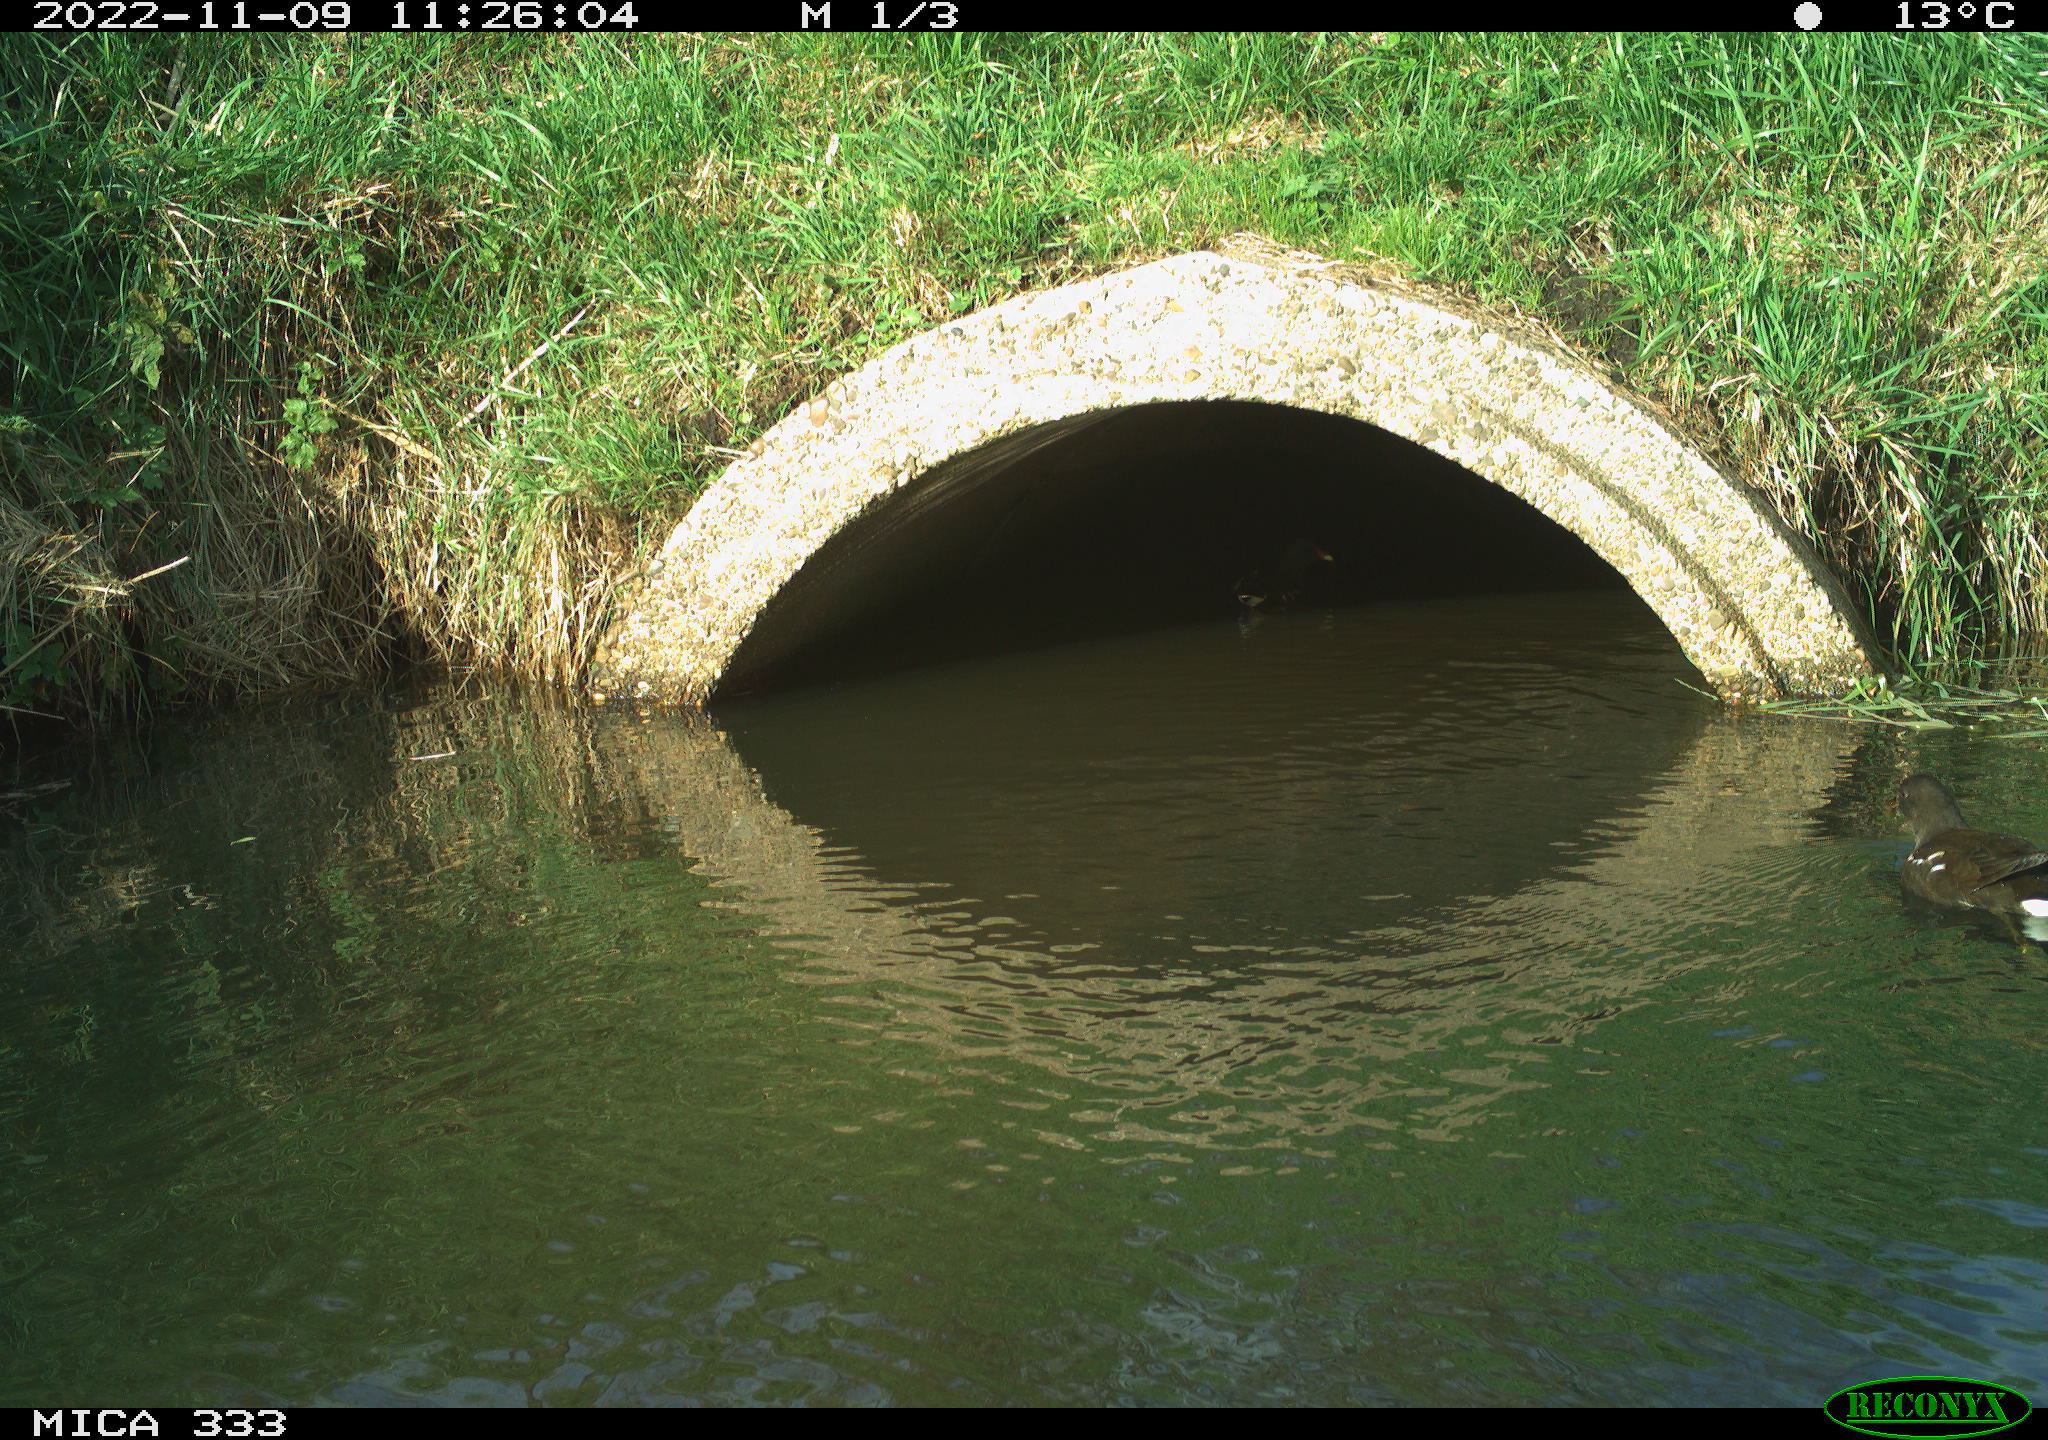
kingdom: Animalia
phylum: Chordata
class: Aves
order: Gruiformes
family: Rallidae
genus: Gallinula
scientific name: Gallinula chloropus
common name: Common moorhen
